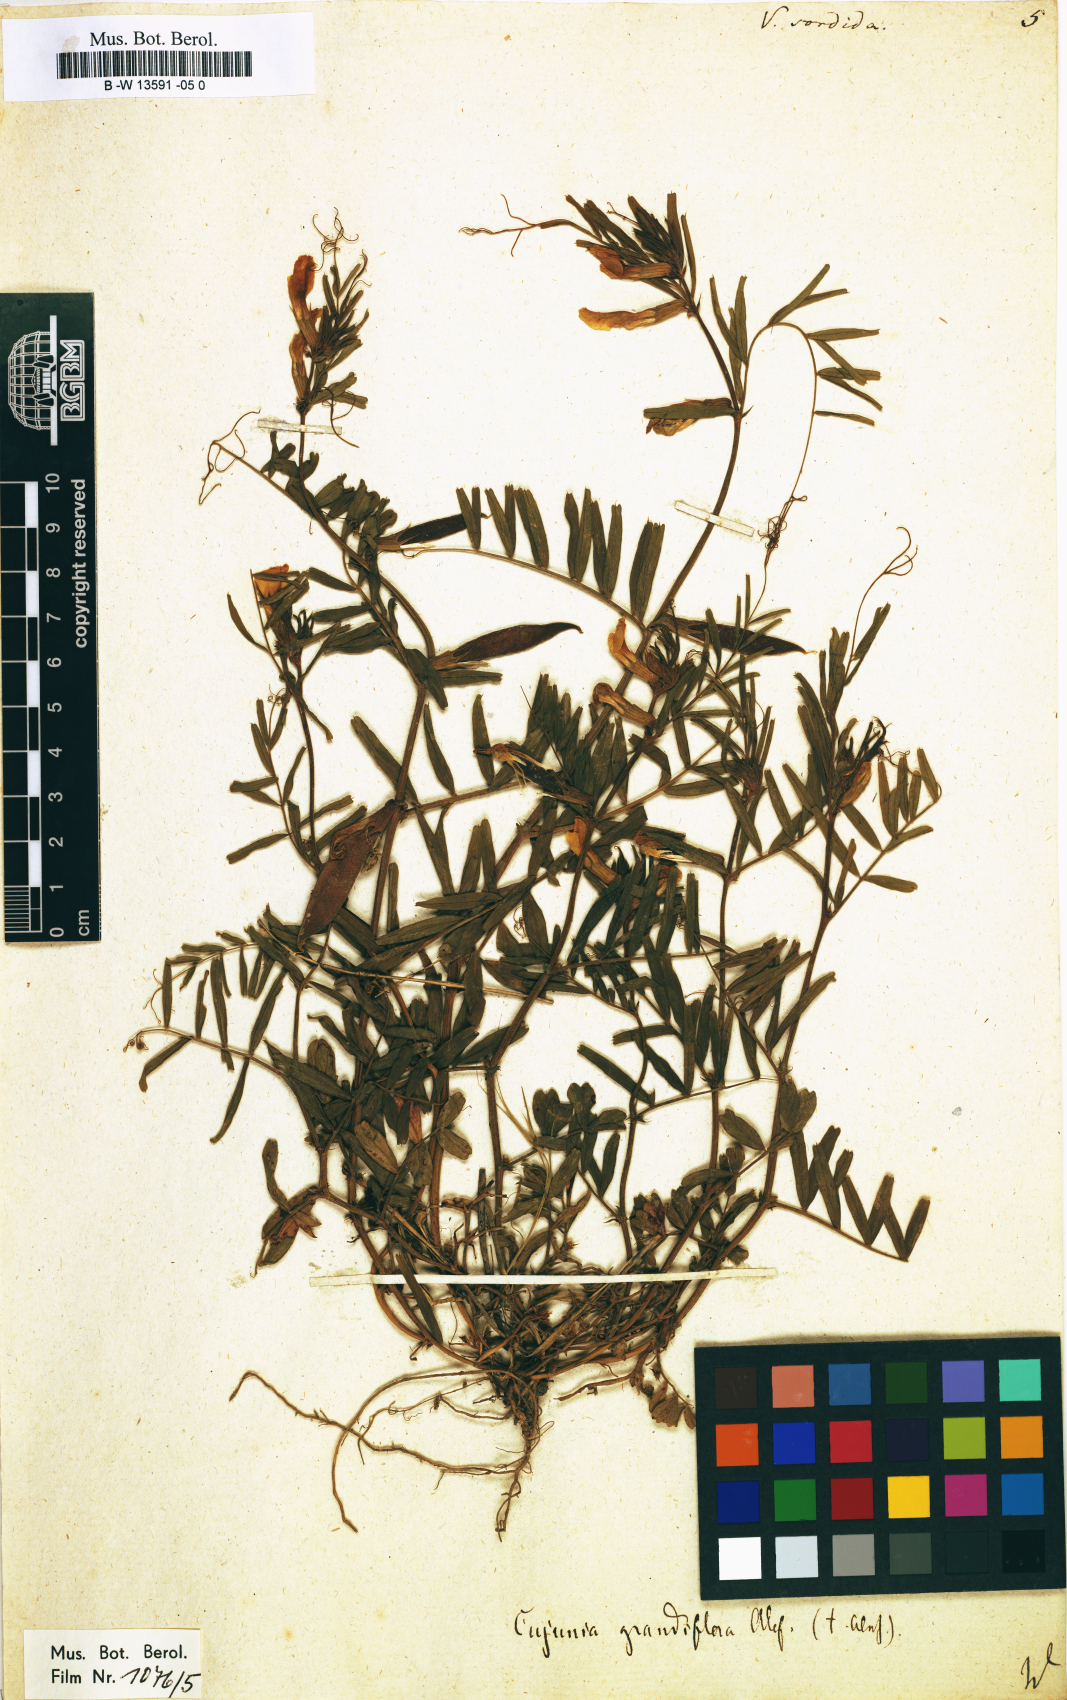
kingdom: Plantae
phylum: Tracheophyta
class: Magnoliopsida
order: Fabales
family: Fabaceae
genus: Vicia
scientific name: Vicia
